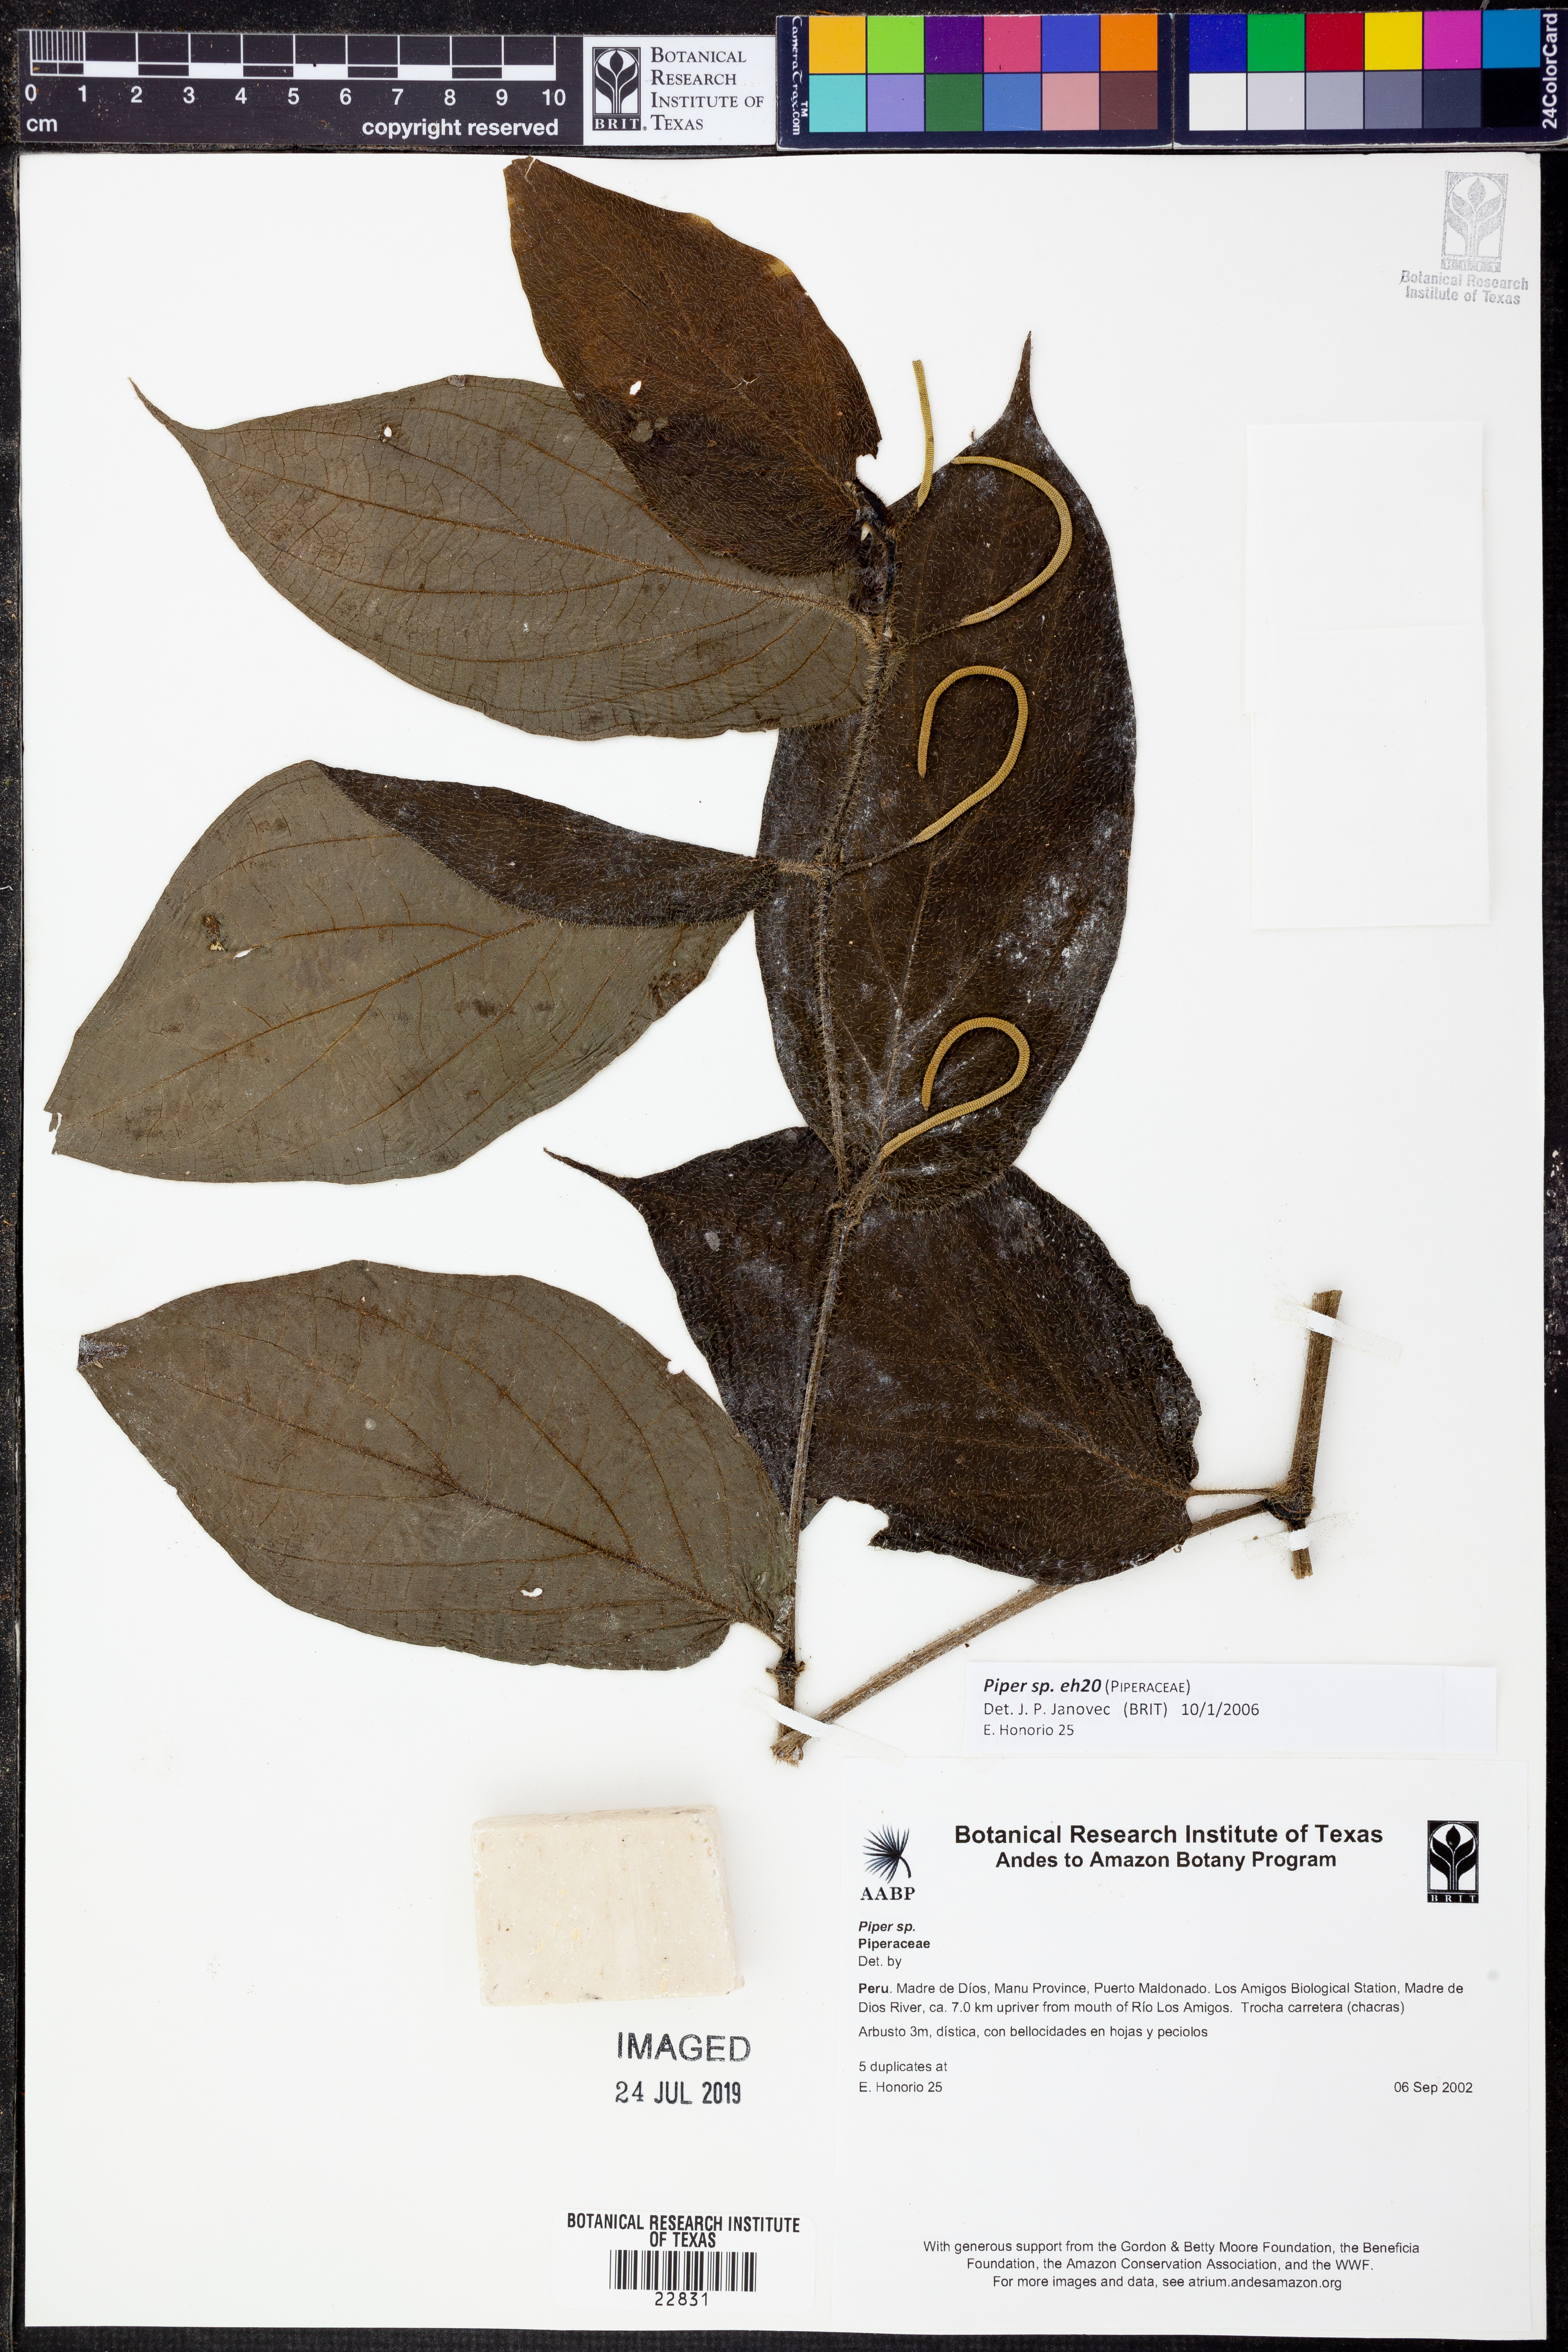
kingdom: Plantae
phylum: Tracheophyta
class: Magnoliopsida
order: Piperales
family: Piperaceae
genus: Piper
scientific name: Piper
